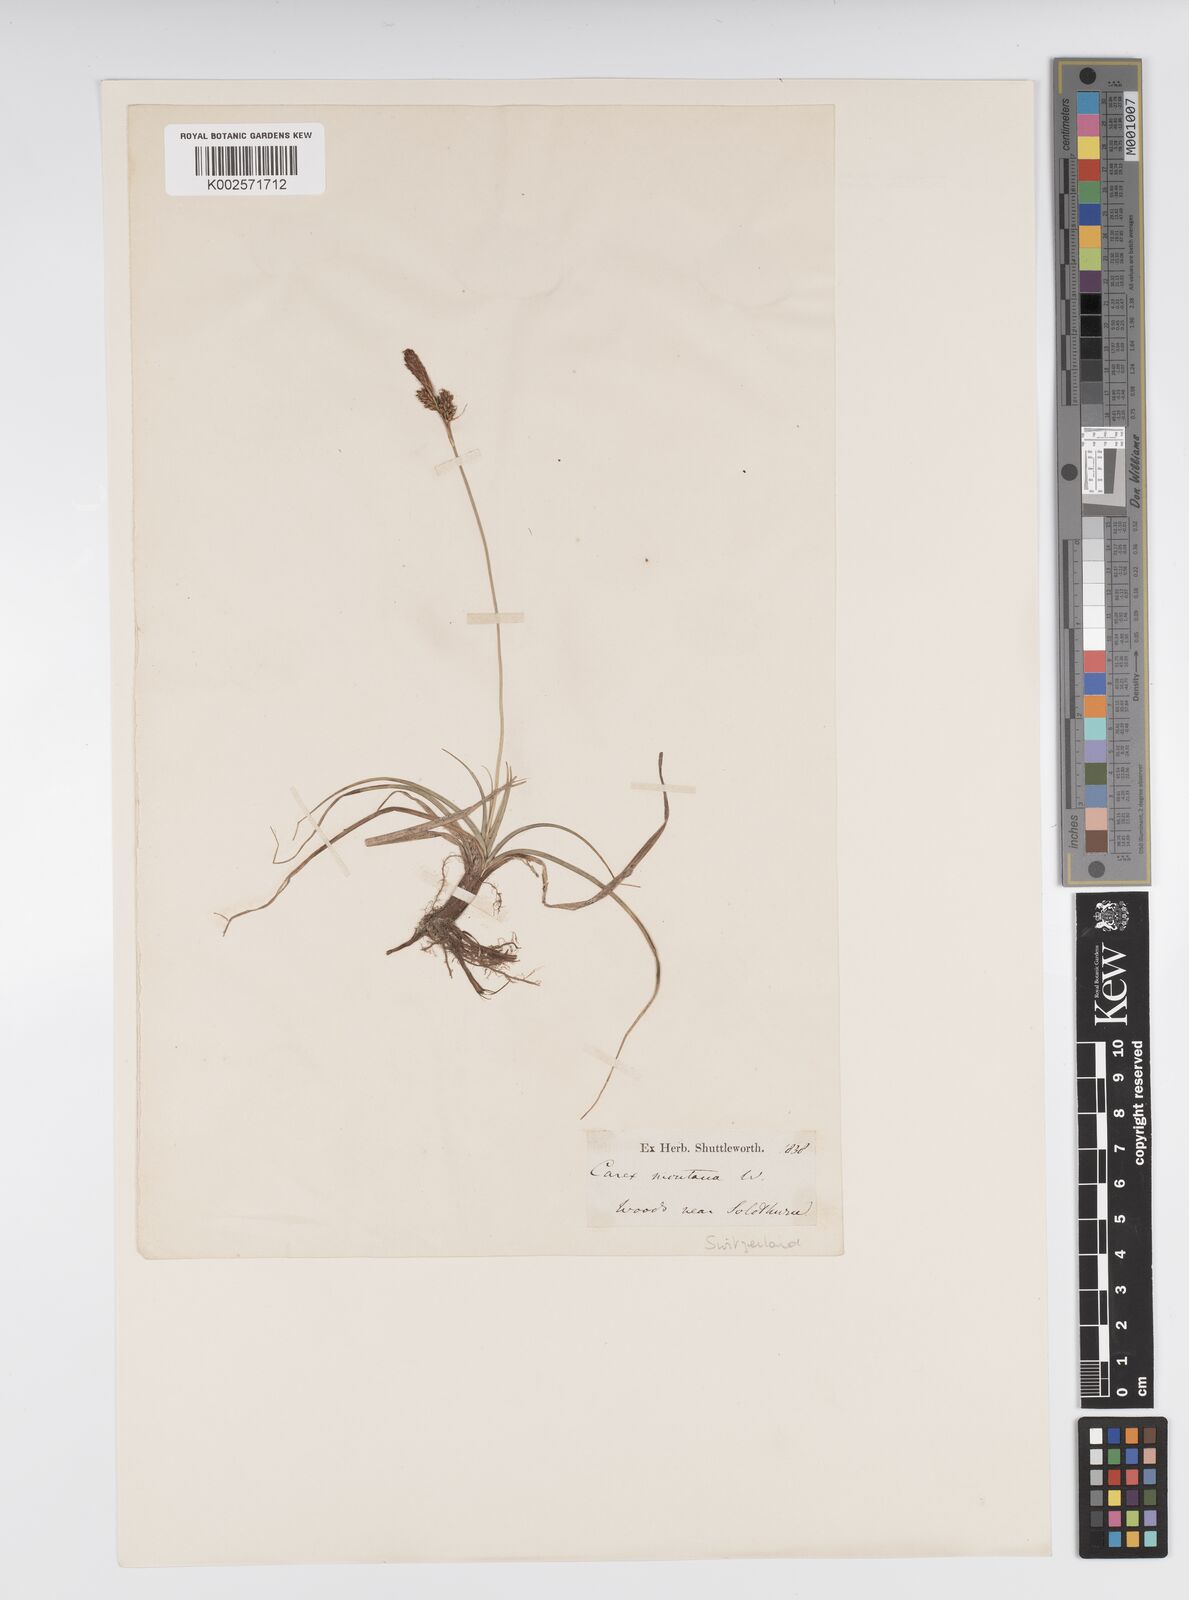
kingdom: Plantae
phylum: Tracheophyta
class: Liliopsida
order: Poales
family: Cyperaceae
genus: Carex
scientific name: Carex caryophyllea
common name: Spring sedge
